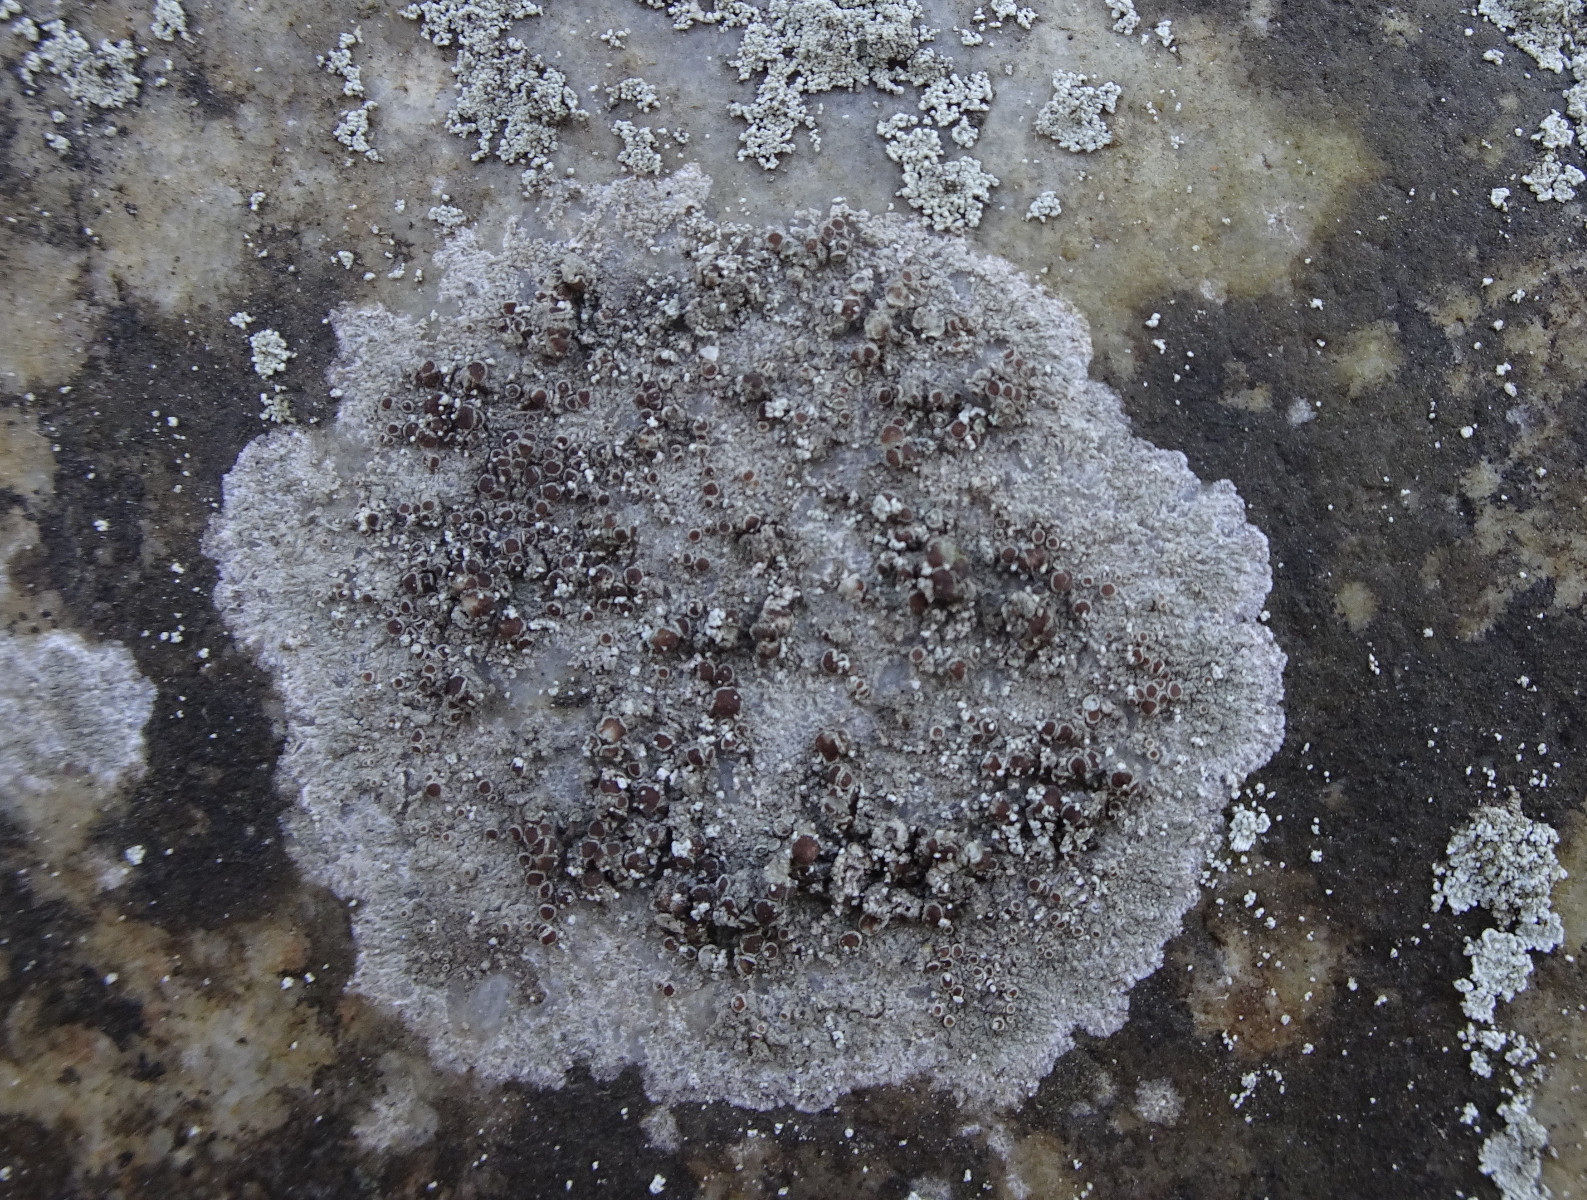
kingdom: Fungi
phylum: Ascomycota
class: Lecanoromycetes
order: Lecanorales
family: Lecanoraceae
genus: Lecanora
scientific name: Lecanora campestris
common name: mur-kantskivelav
